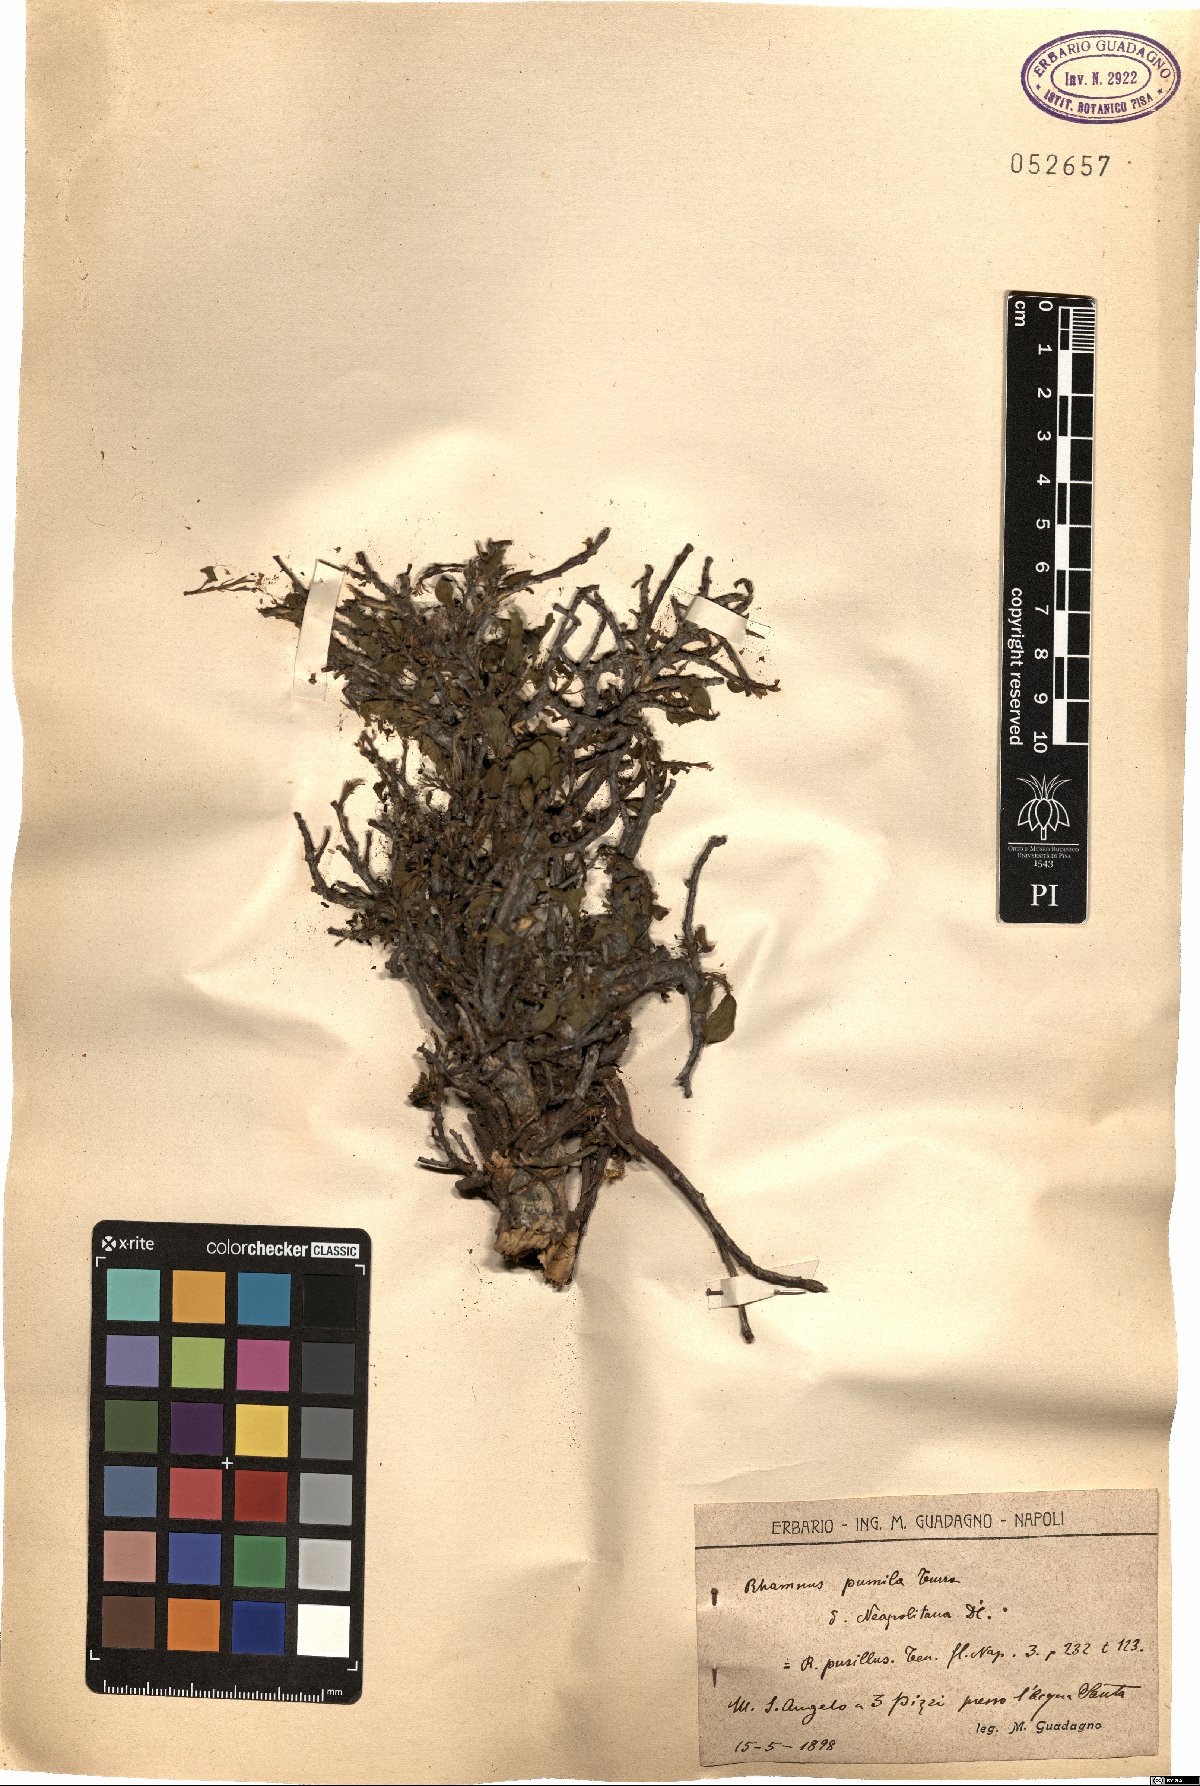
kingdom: Plantae
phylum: Tracheophyta
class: Magnoliopsida
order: Rosales
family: Rhamnaceae
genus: Atadinus
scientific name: Atadinus pumilus
